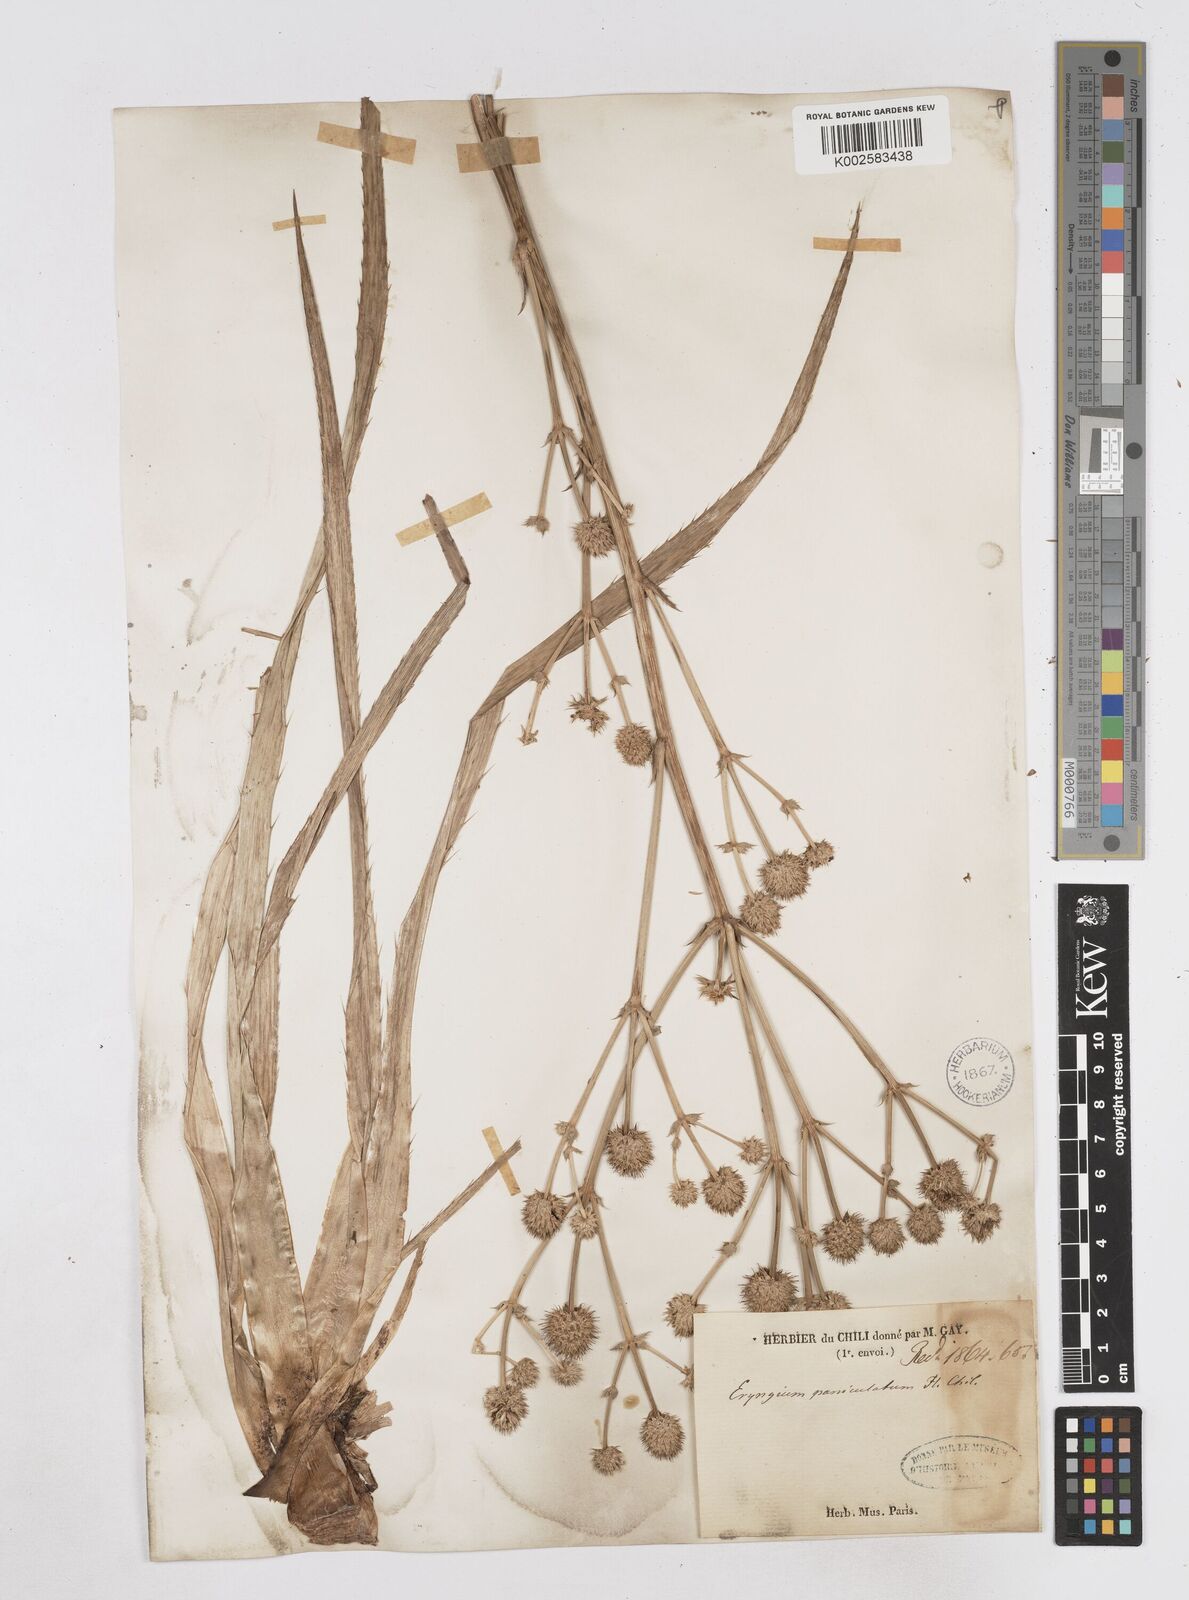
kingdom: Plantae
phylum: Tracheophyta
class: Magnoliopsida
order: Apiales
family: Apiaceae
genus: Eryngium
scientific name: Eryngium humboldtii
